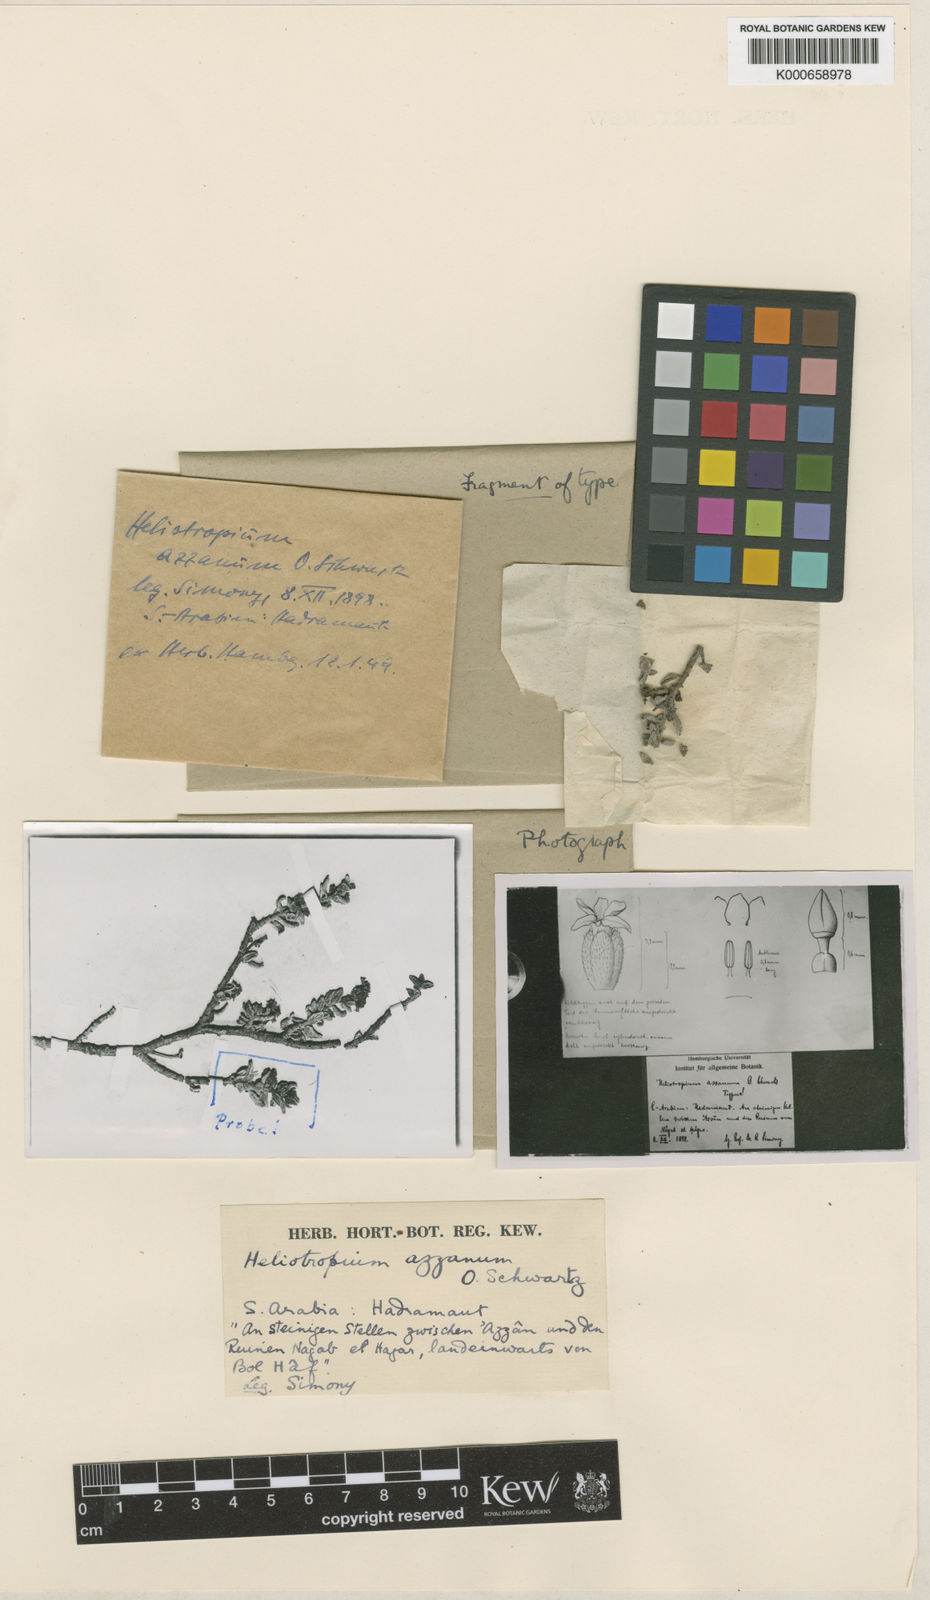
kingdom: Plantae
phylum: Tracheophyta
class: Magnoliopsida
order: Boraginales
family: Heliotropiaceae
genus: Heliotropium
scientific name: Heliotropium azzanum
